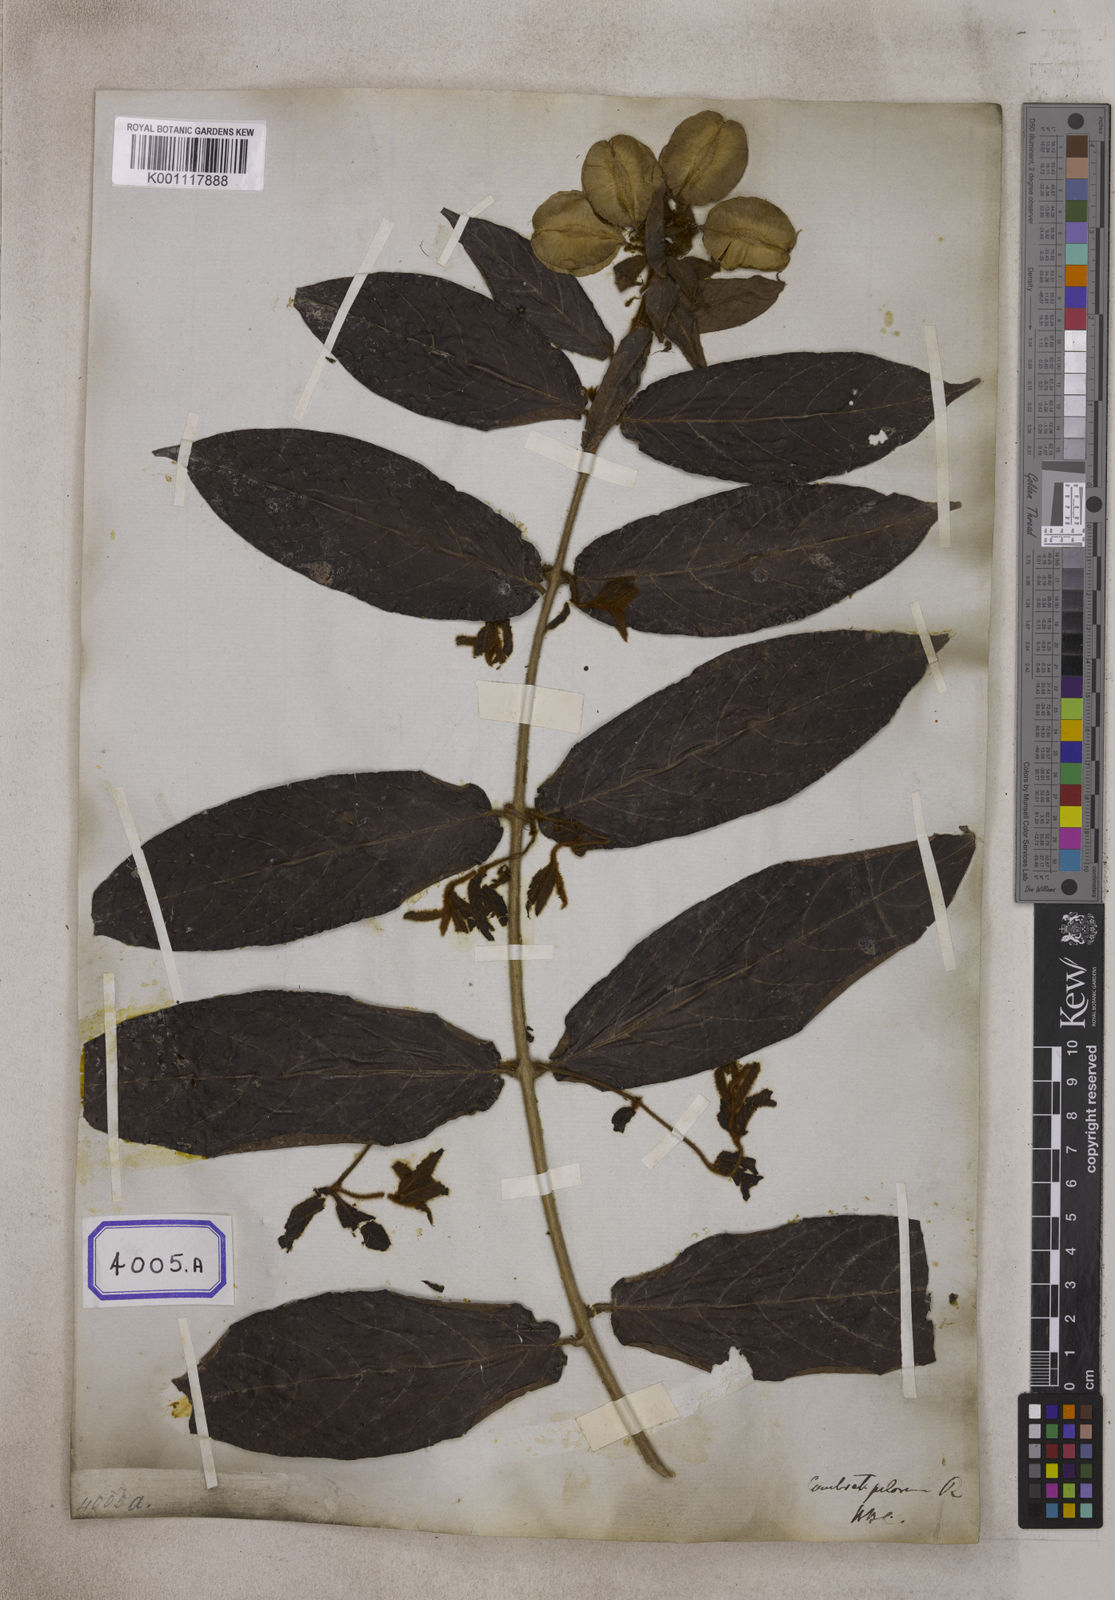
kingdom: Plantae
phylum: Tracheophyta
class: Magnoliopsida
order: Myrtales
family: Combretaceae
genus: Combretum
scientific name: Combretum
